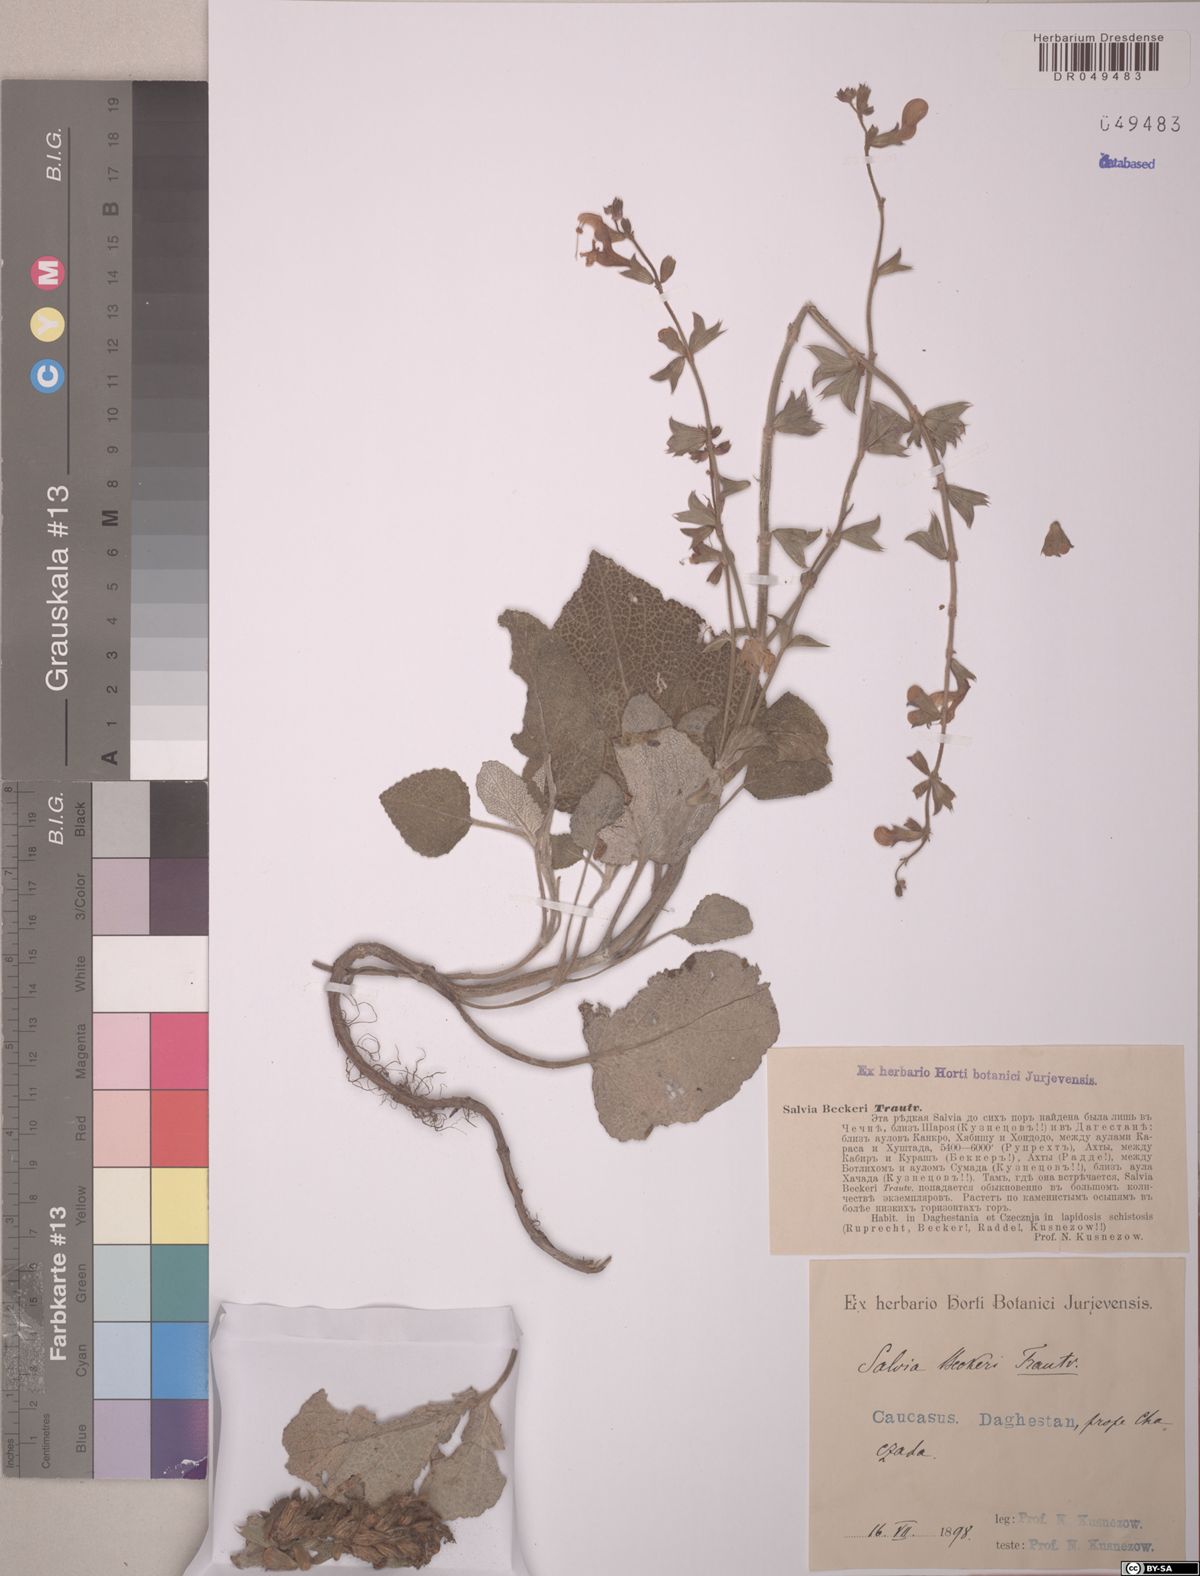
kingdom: Plantae
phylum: Tracheophyta
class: Magnoliopsida
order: Lamiales
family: Lamiaceae
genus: Salvia
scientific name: Salvia beckeri
